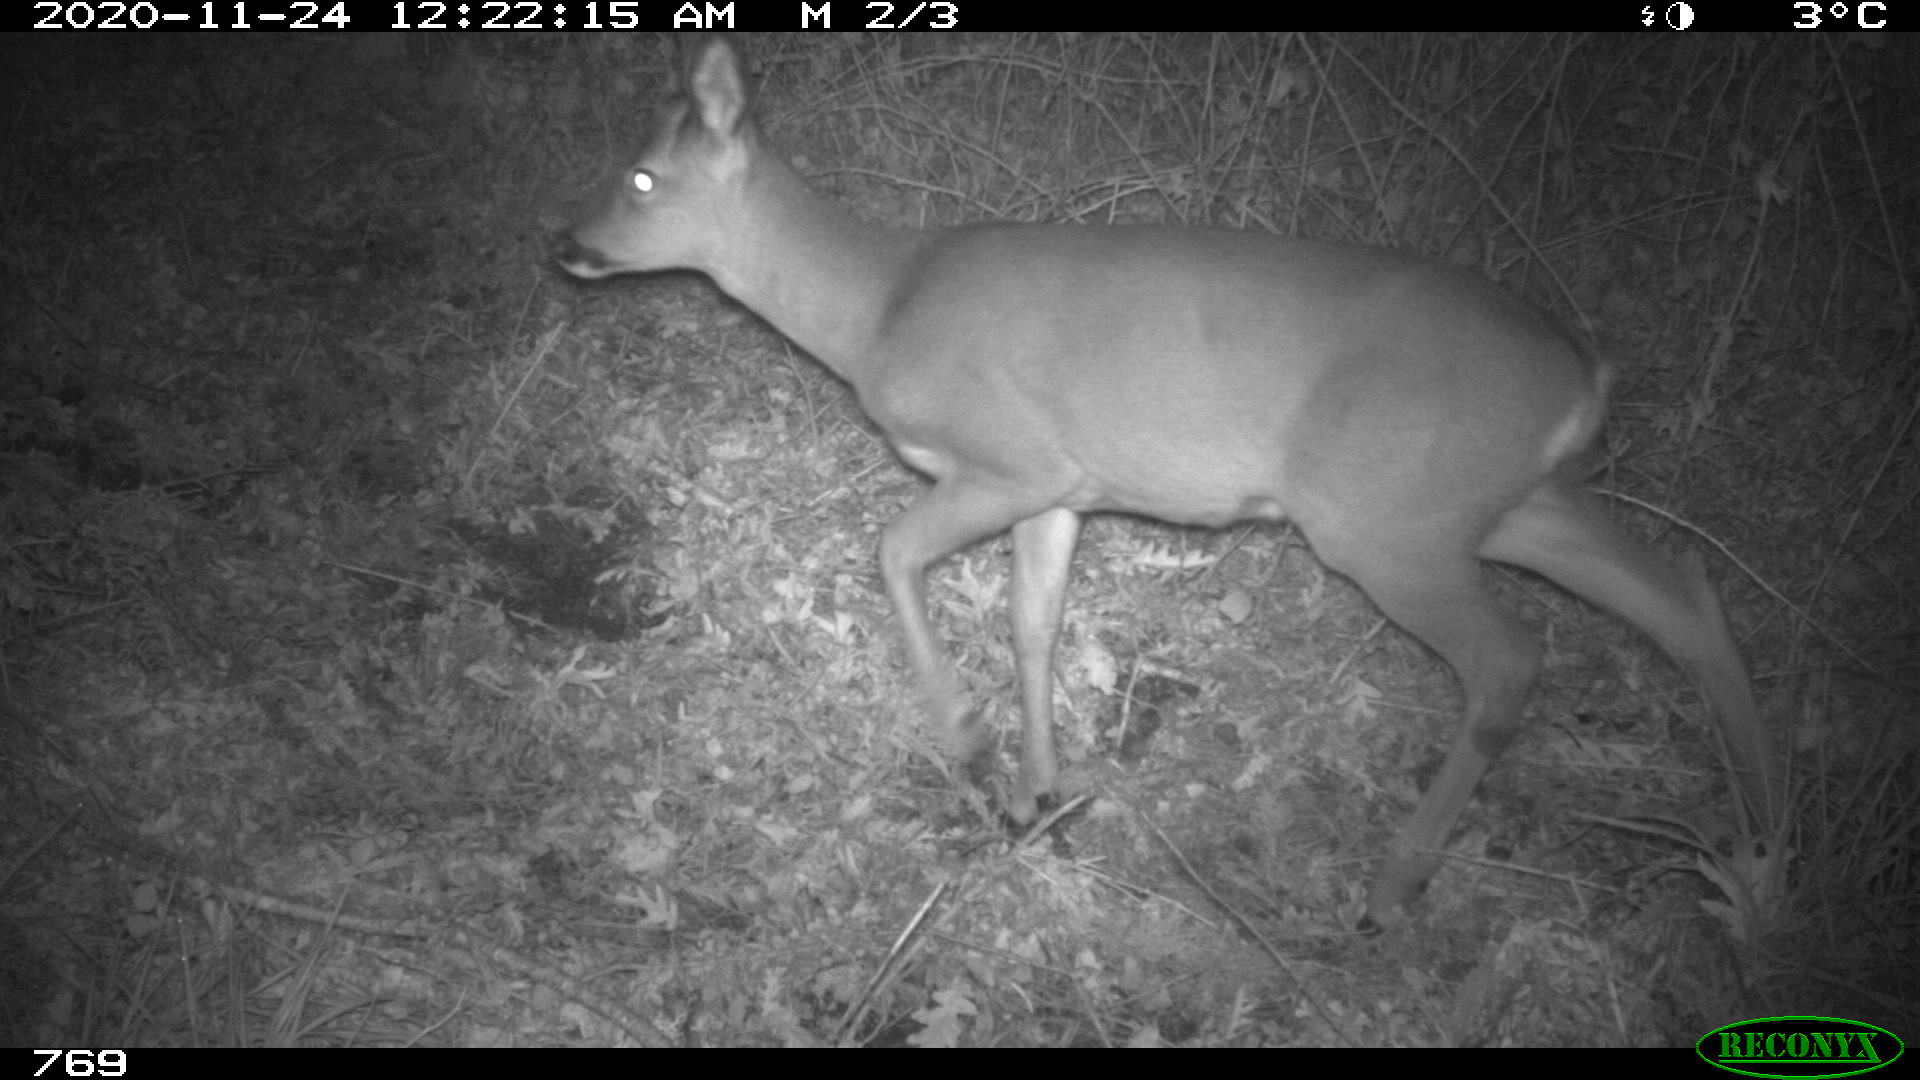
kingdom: Animalia
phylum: Chordata
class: Mammalia
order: Artiodactyla
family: Cervidae
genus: Capreolus
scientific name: Capreolus capreolus
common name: Western roe deer
